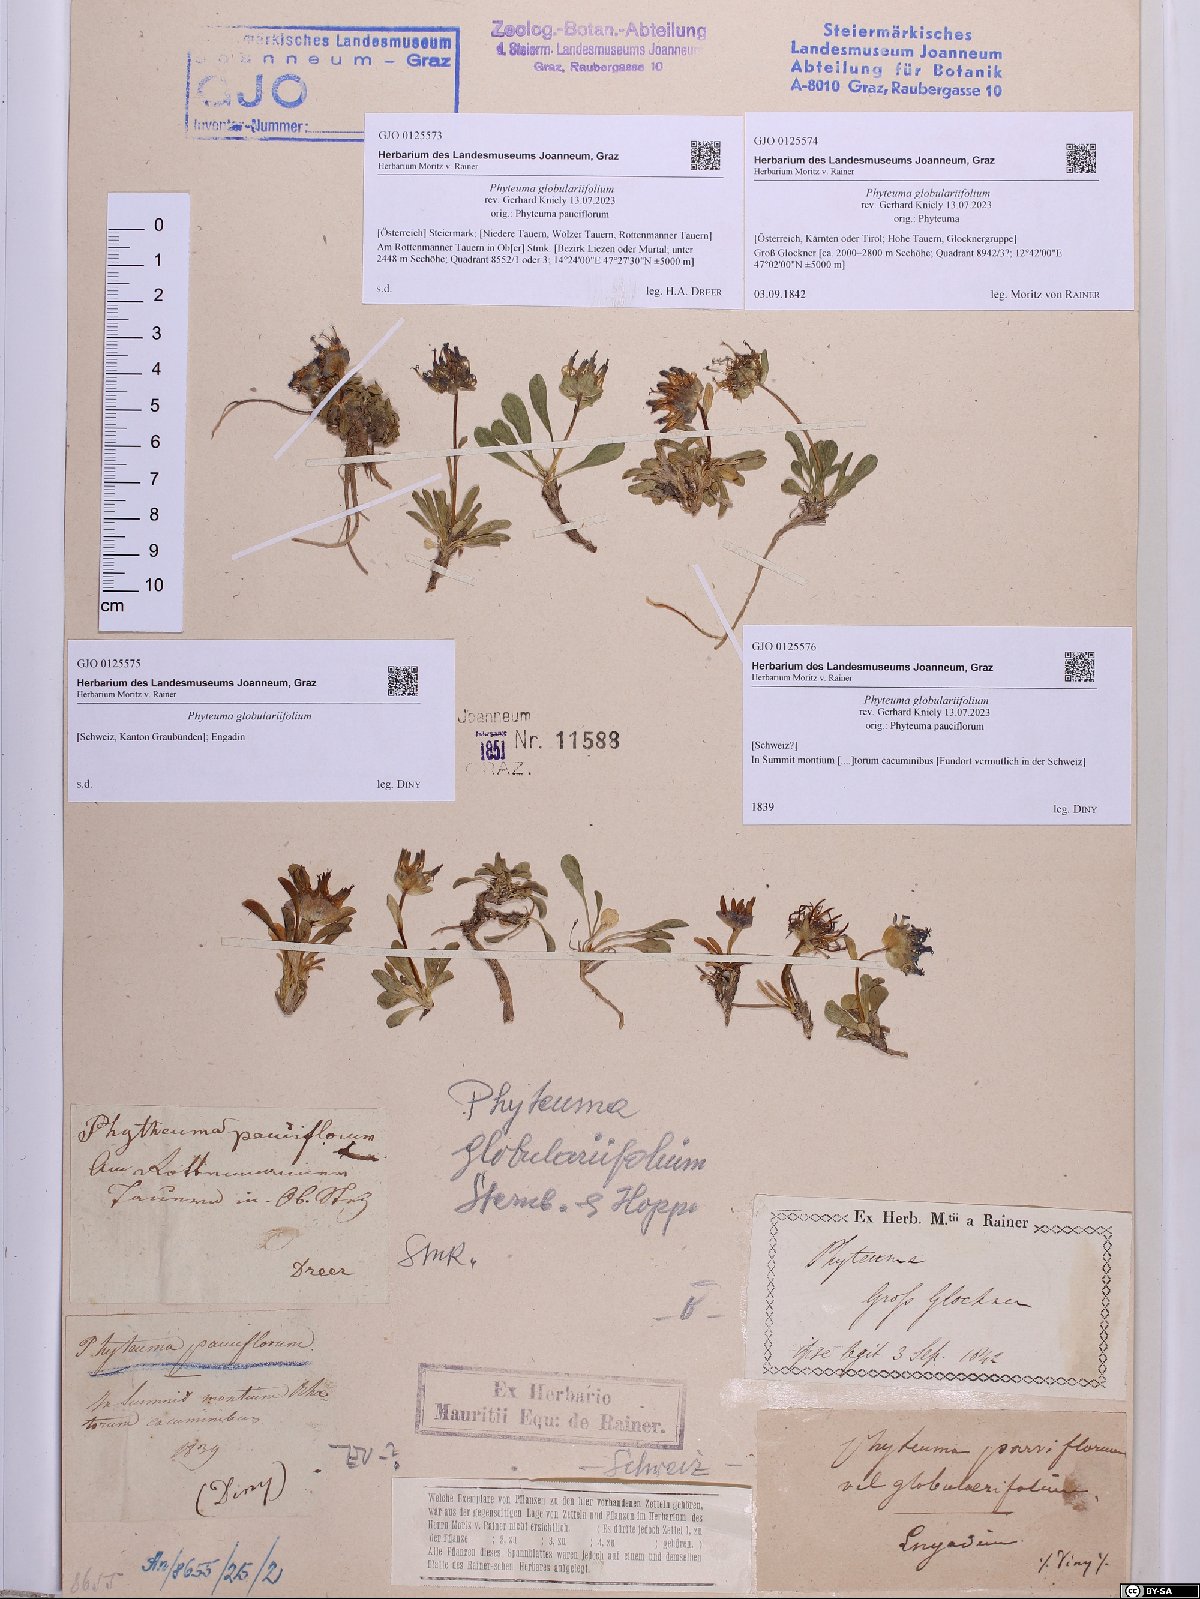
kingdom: Plantae
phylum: Tracheophyta
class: Magnoliopsida
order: Asterales
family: Campanulaceae
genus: Phyteuma
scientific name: Phyteuma globulariifolium
